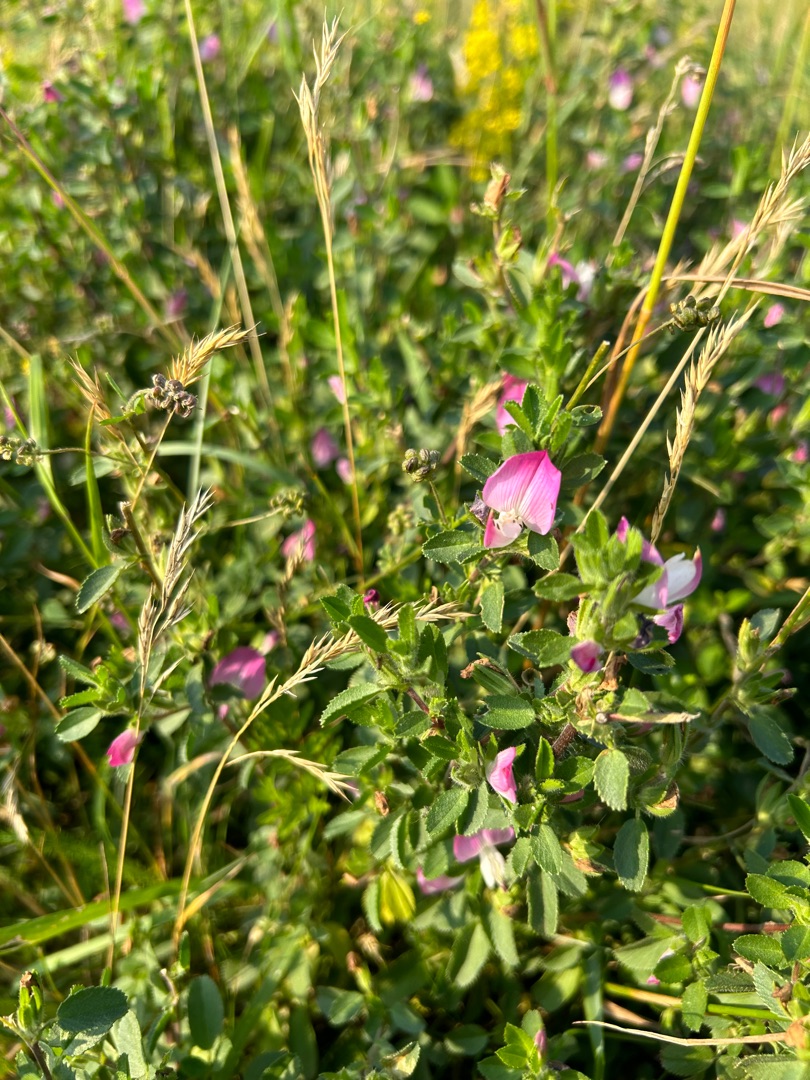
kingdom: Plantae
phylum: Tracheophyta
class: Magnoliopsida
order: Fabales
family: Fabaceae
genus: Ononis
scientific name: Ononis spinosa
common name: Mark-krageklo
